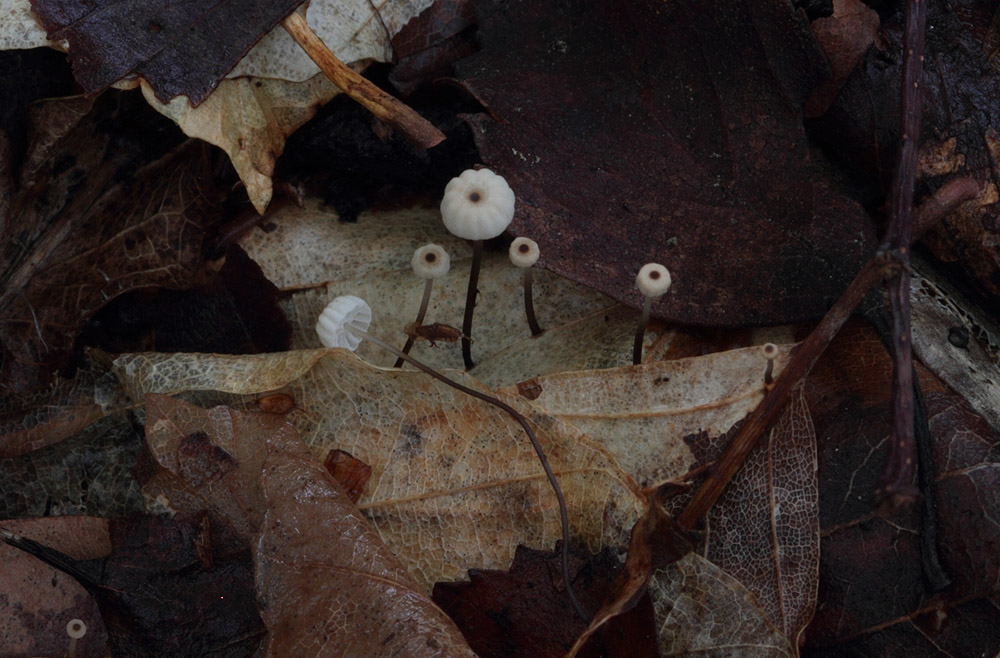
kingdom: Fungi
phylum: Basidiomycota
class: Agaricomycetes
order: Agaricales
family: Marasmiaceae
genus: Marasmius
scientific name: Marasmius bulliardii
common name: furet bruskhat
